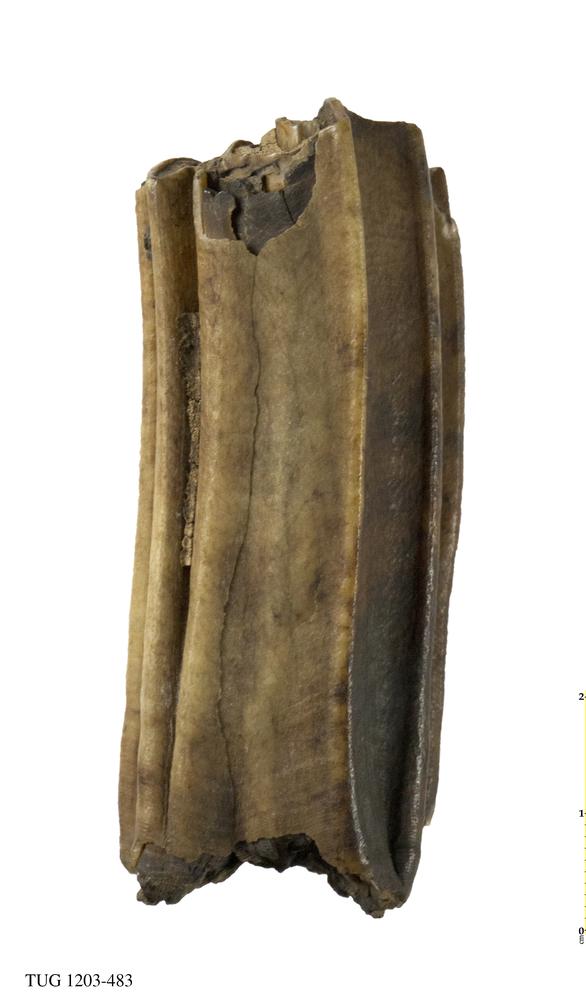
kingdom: Animalia
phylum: Chordata
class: Mammalia
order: Perissodactyla
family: Equidae
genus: Equus
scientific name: Equus
